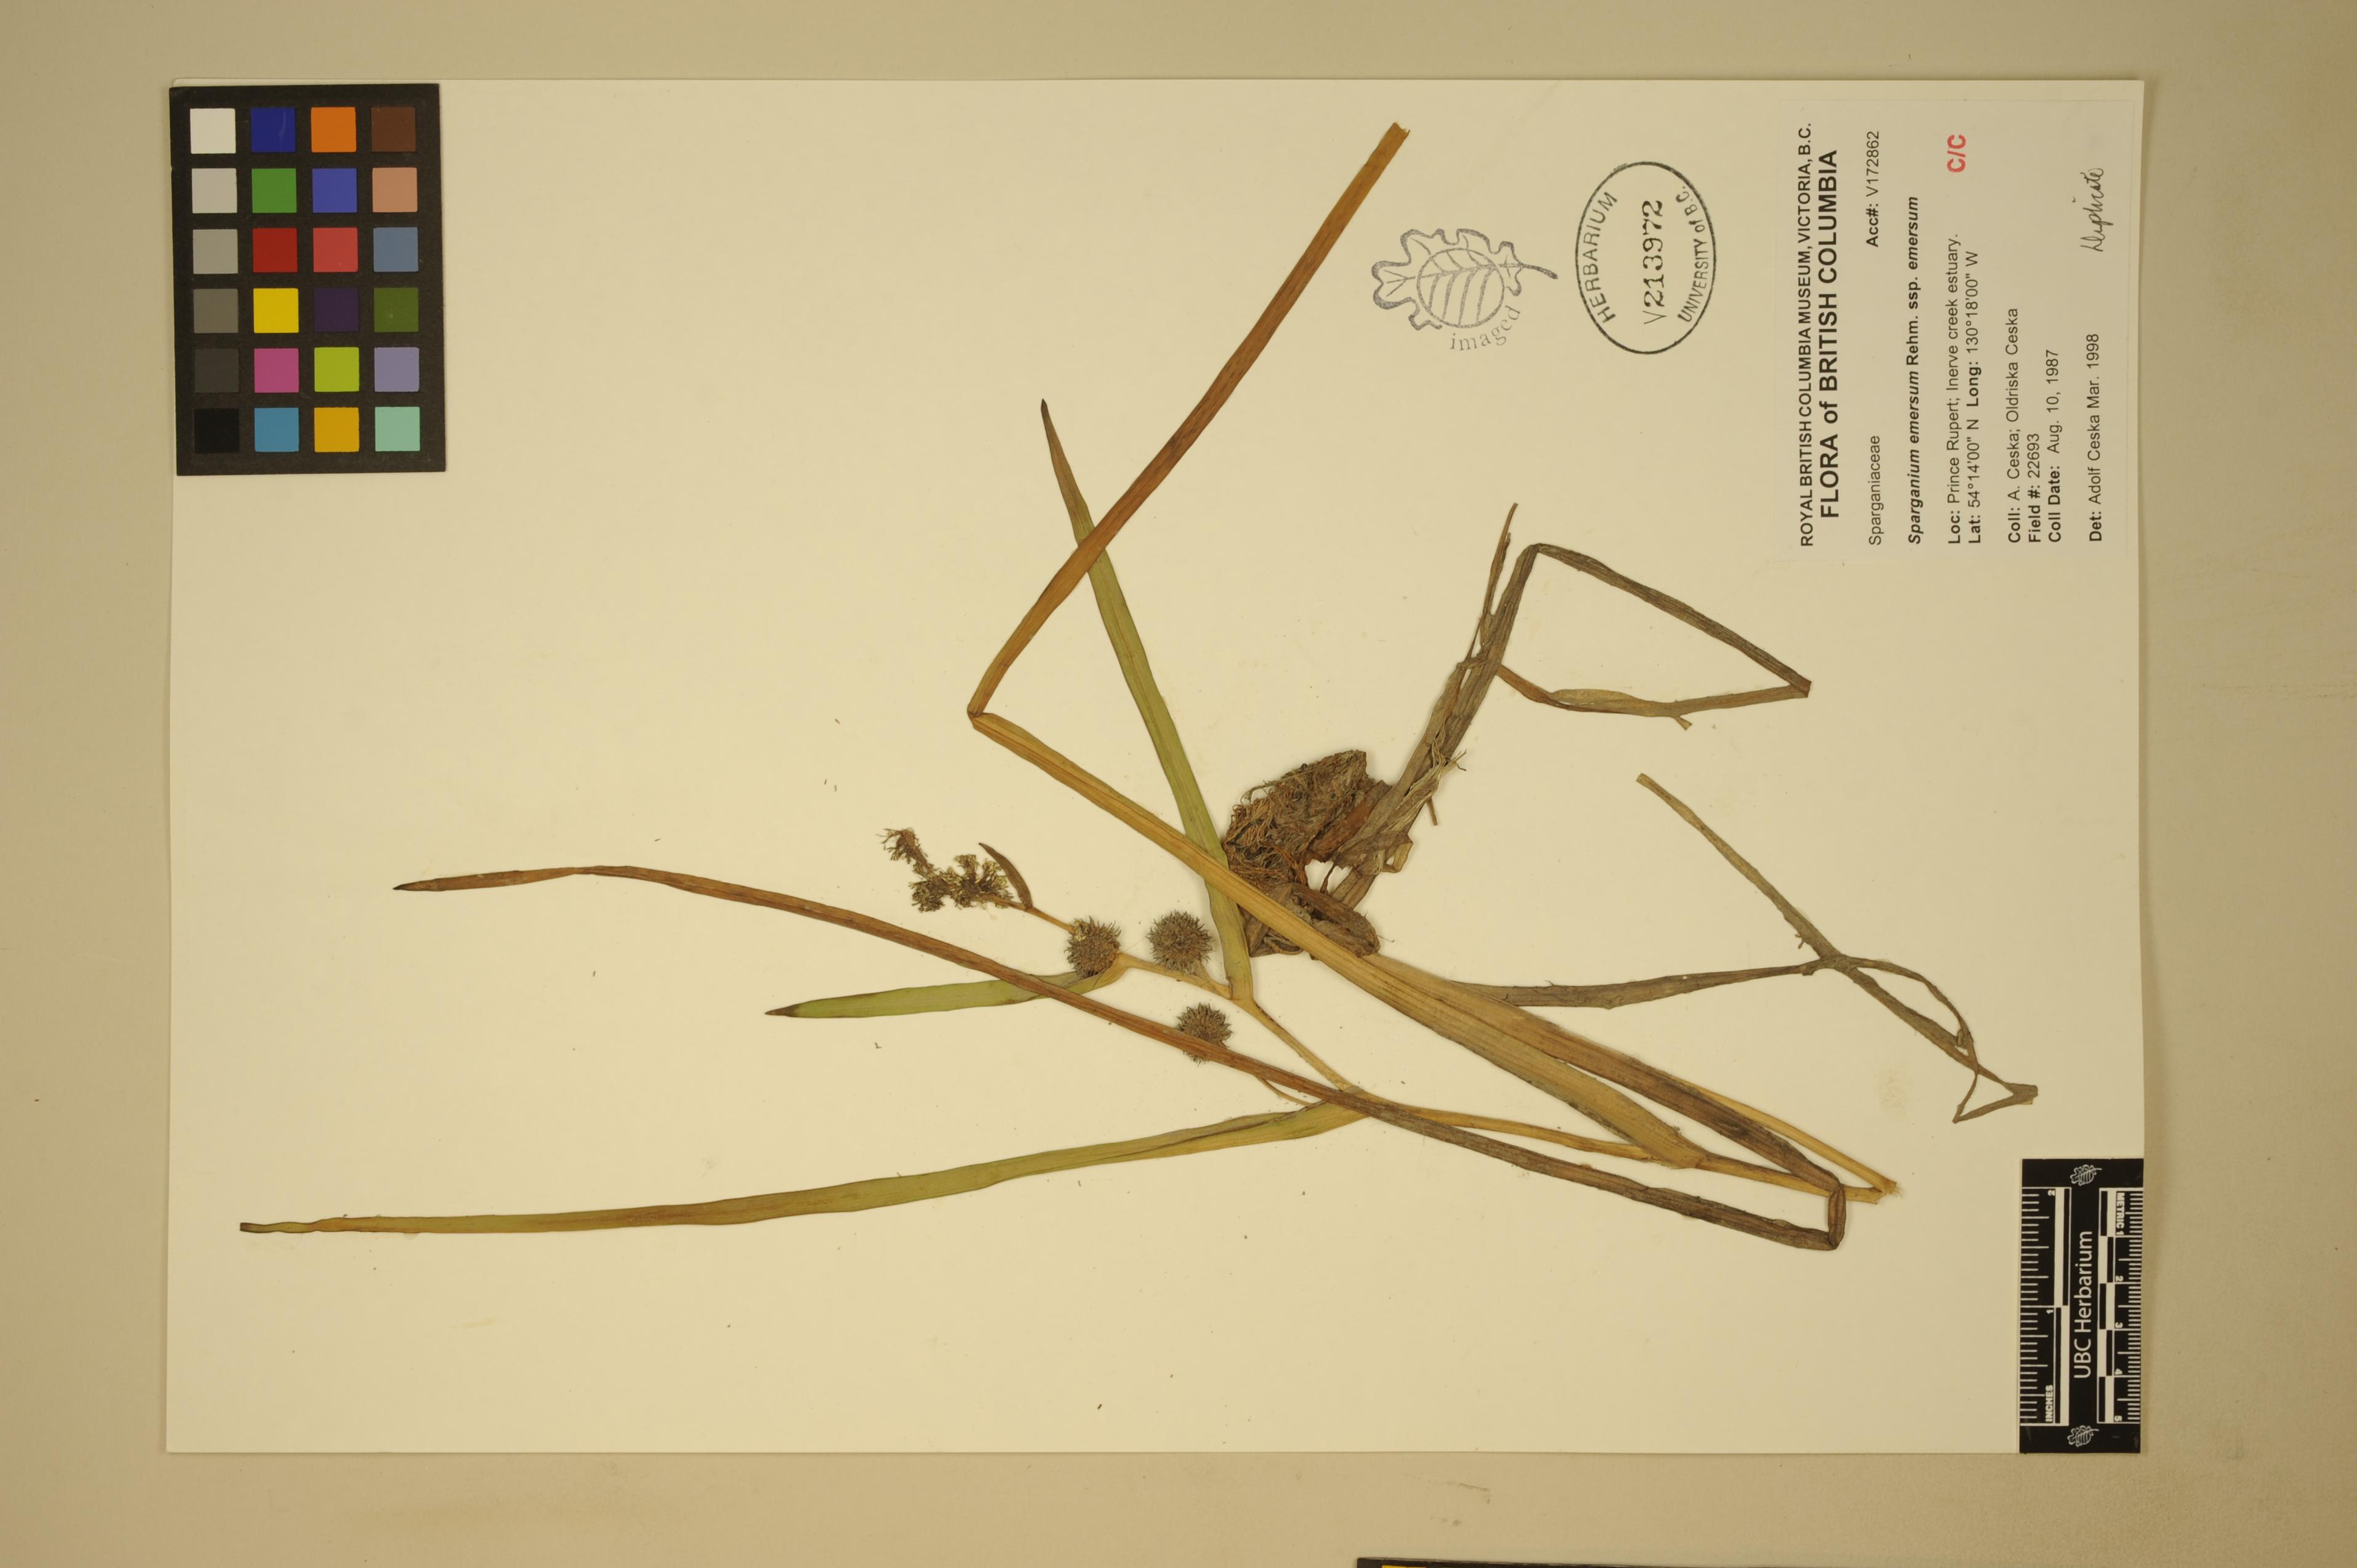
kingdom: Plantae
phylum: Tracheophyta
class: Liliopsida
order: Poales
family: Typhaceae
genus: Sparganium
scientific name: Sparganium emersum
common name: Unbranched bur-reed
